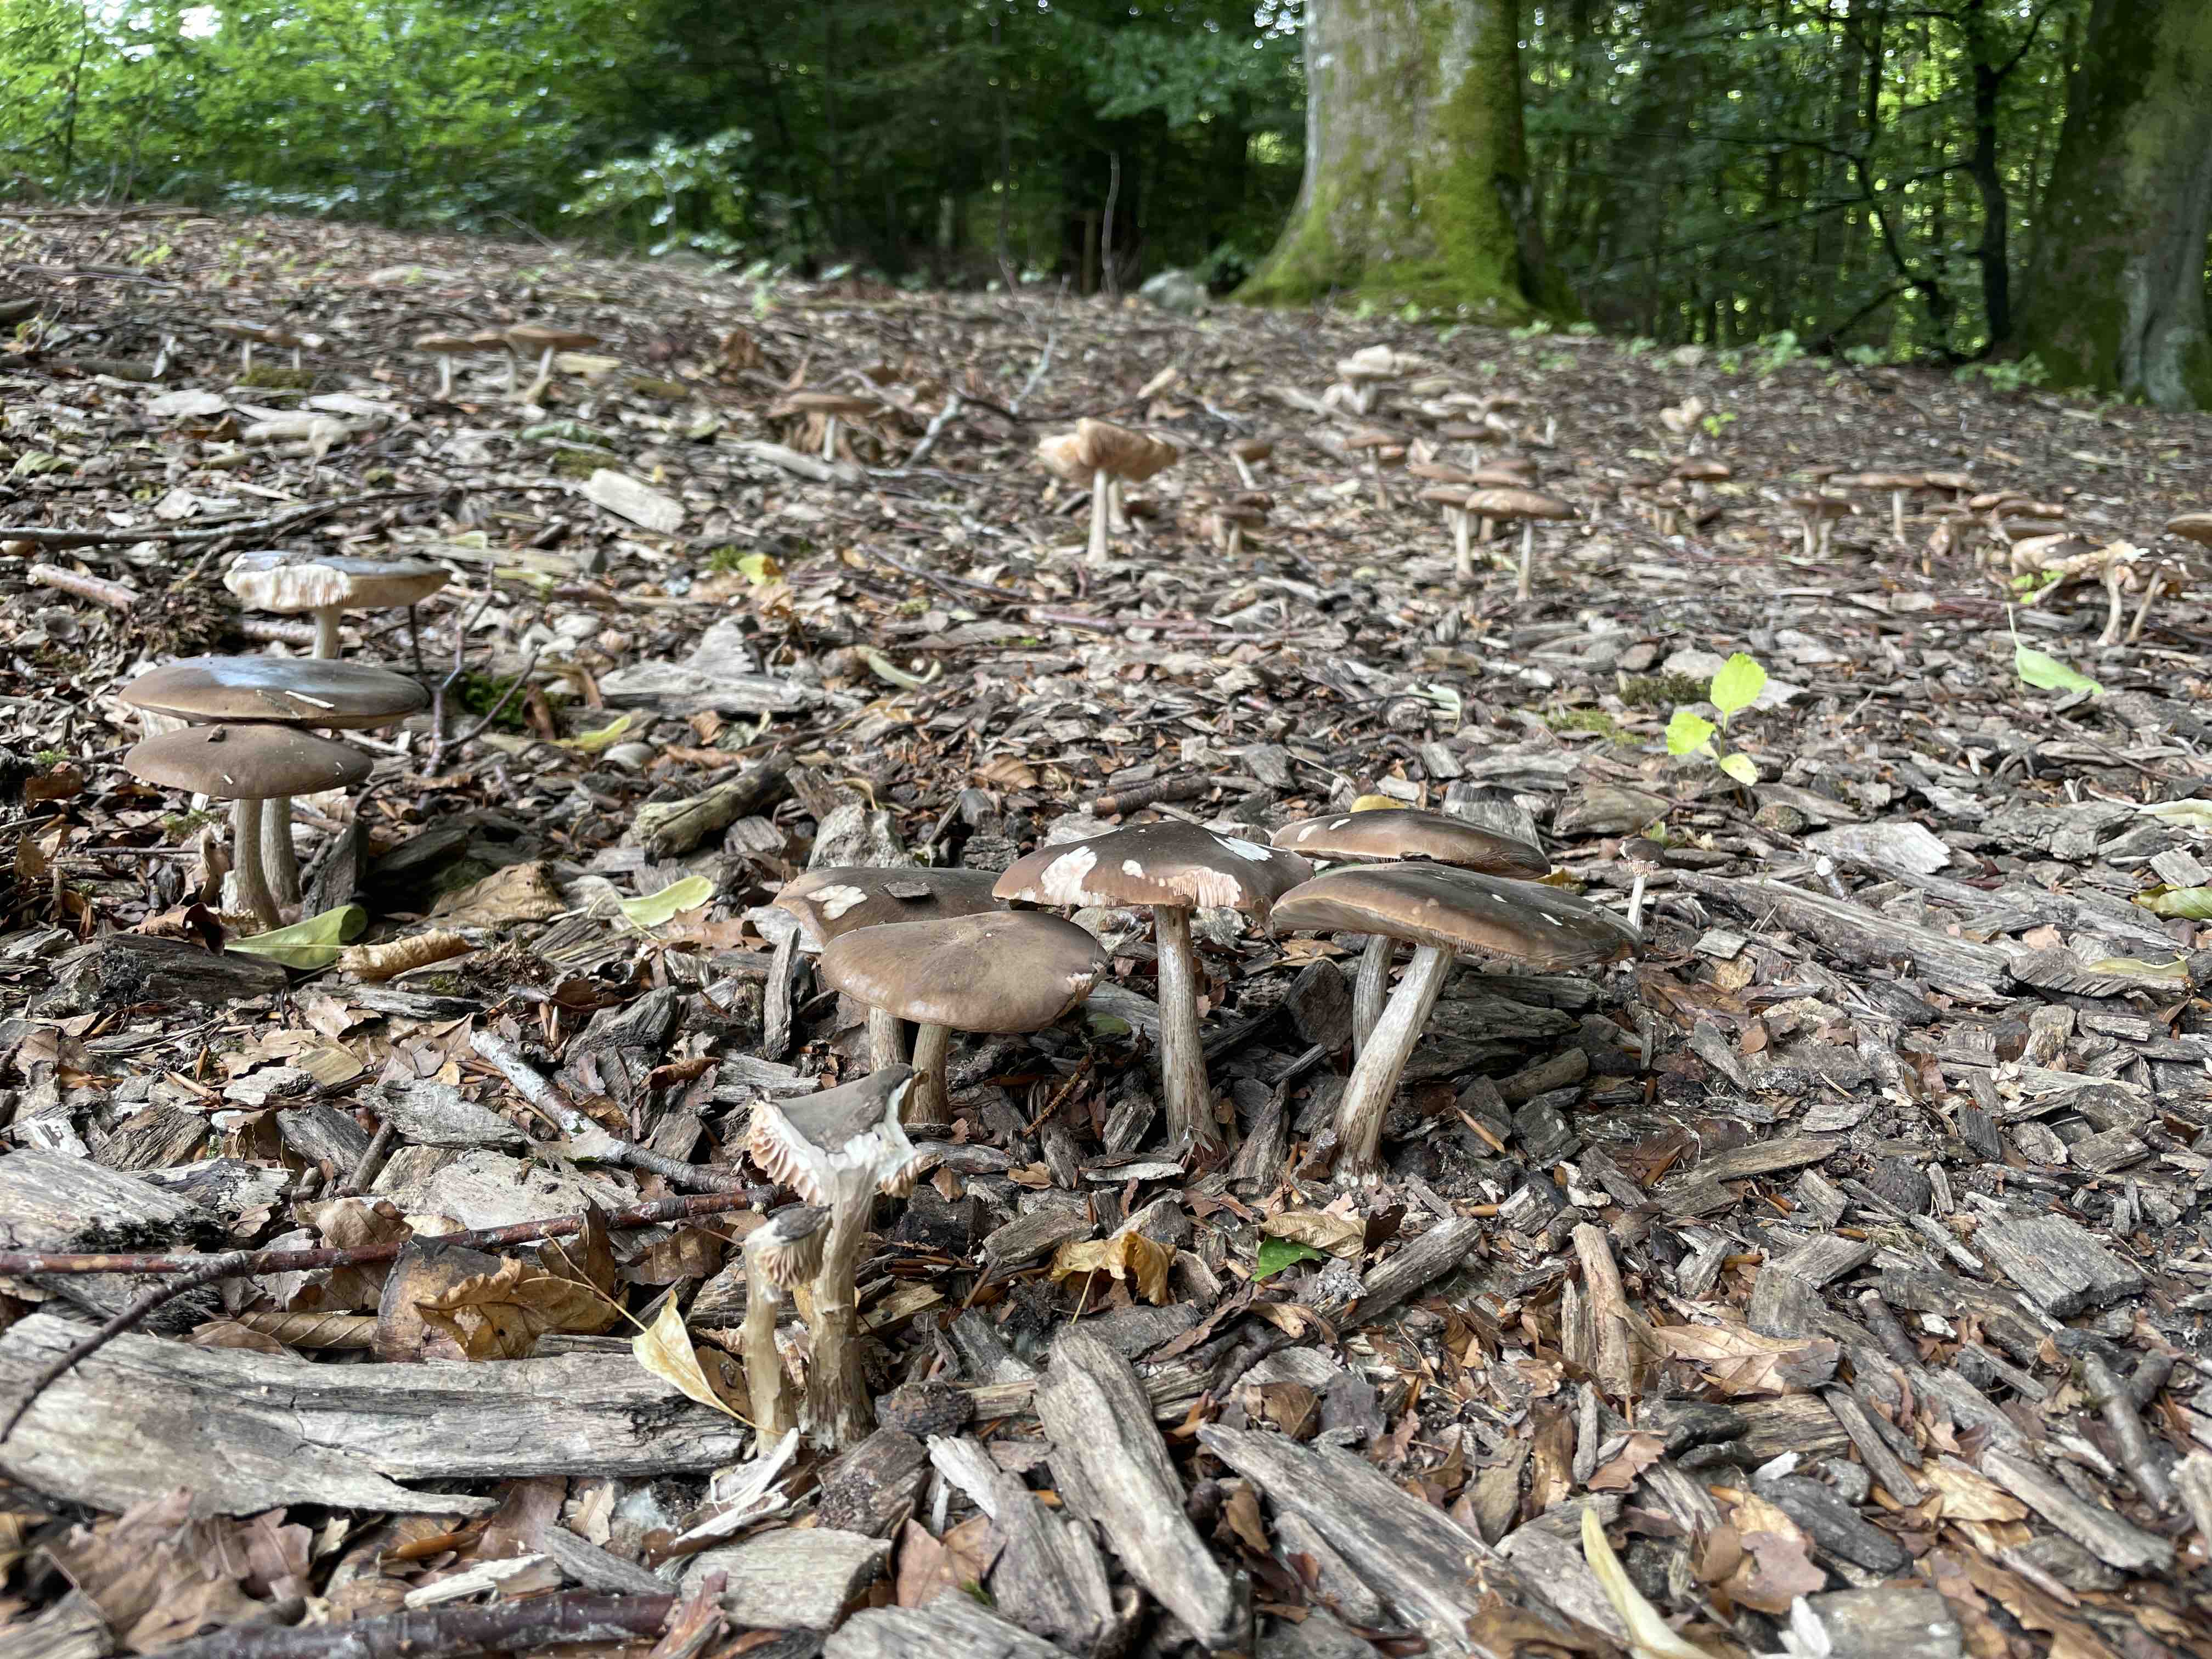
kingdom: Fungi
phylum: Basidiomycota
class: Agaricomycetes
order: Agaricales
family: Pluteaceae
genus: Pluteus
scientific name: Pluteus cervinus
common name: sodfarvet skærmhat
